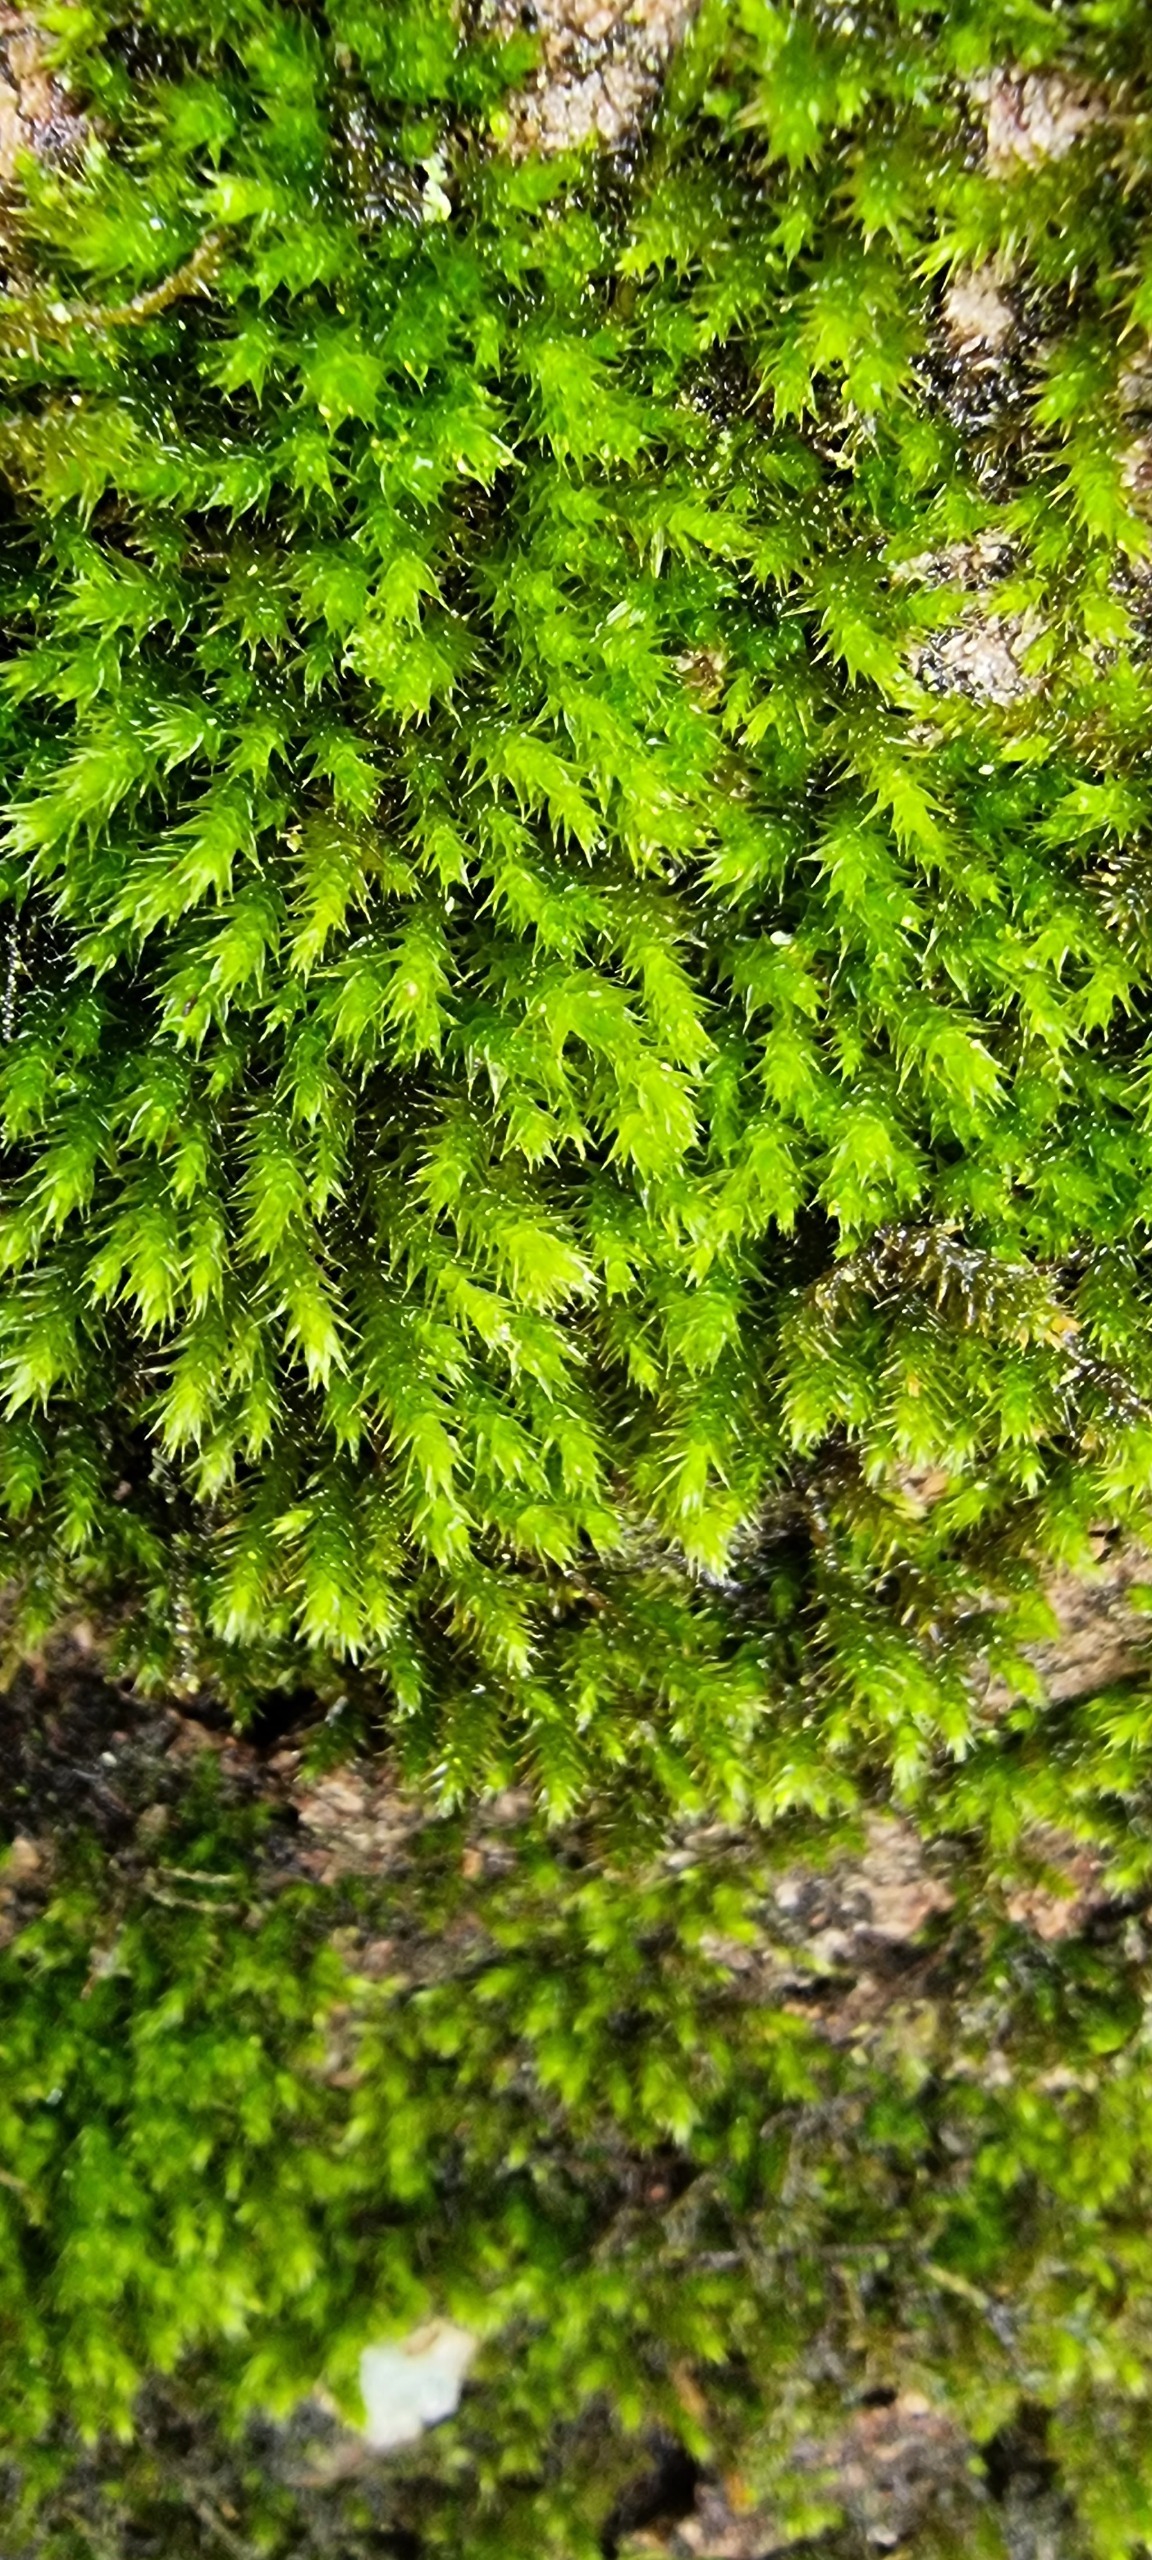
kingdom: Plantae
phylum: Bryophyta
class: Bryopsida
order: Hypnales
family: Leucodontaceae
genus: Leucodon
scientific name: Leucodon sciuroides
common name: Egernhale-buemos
